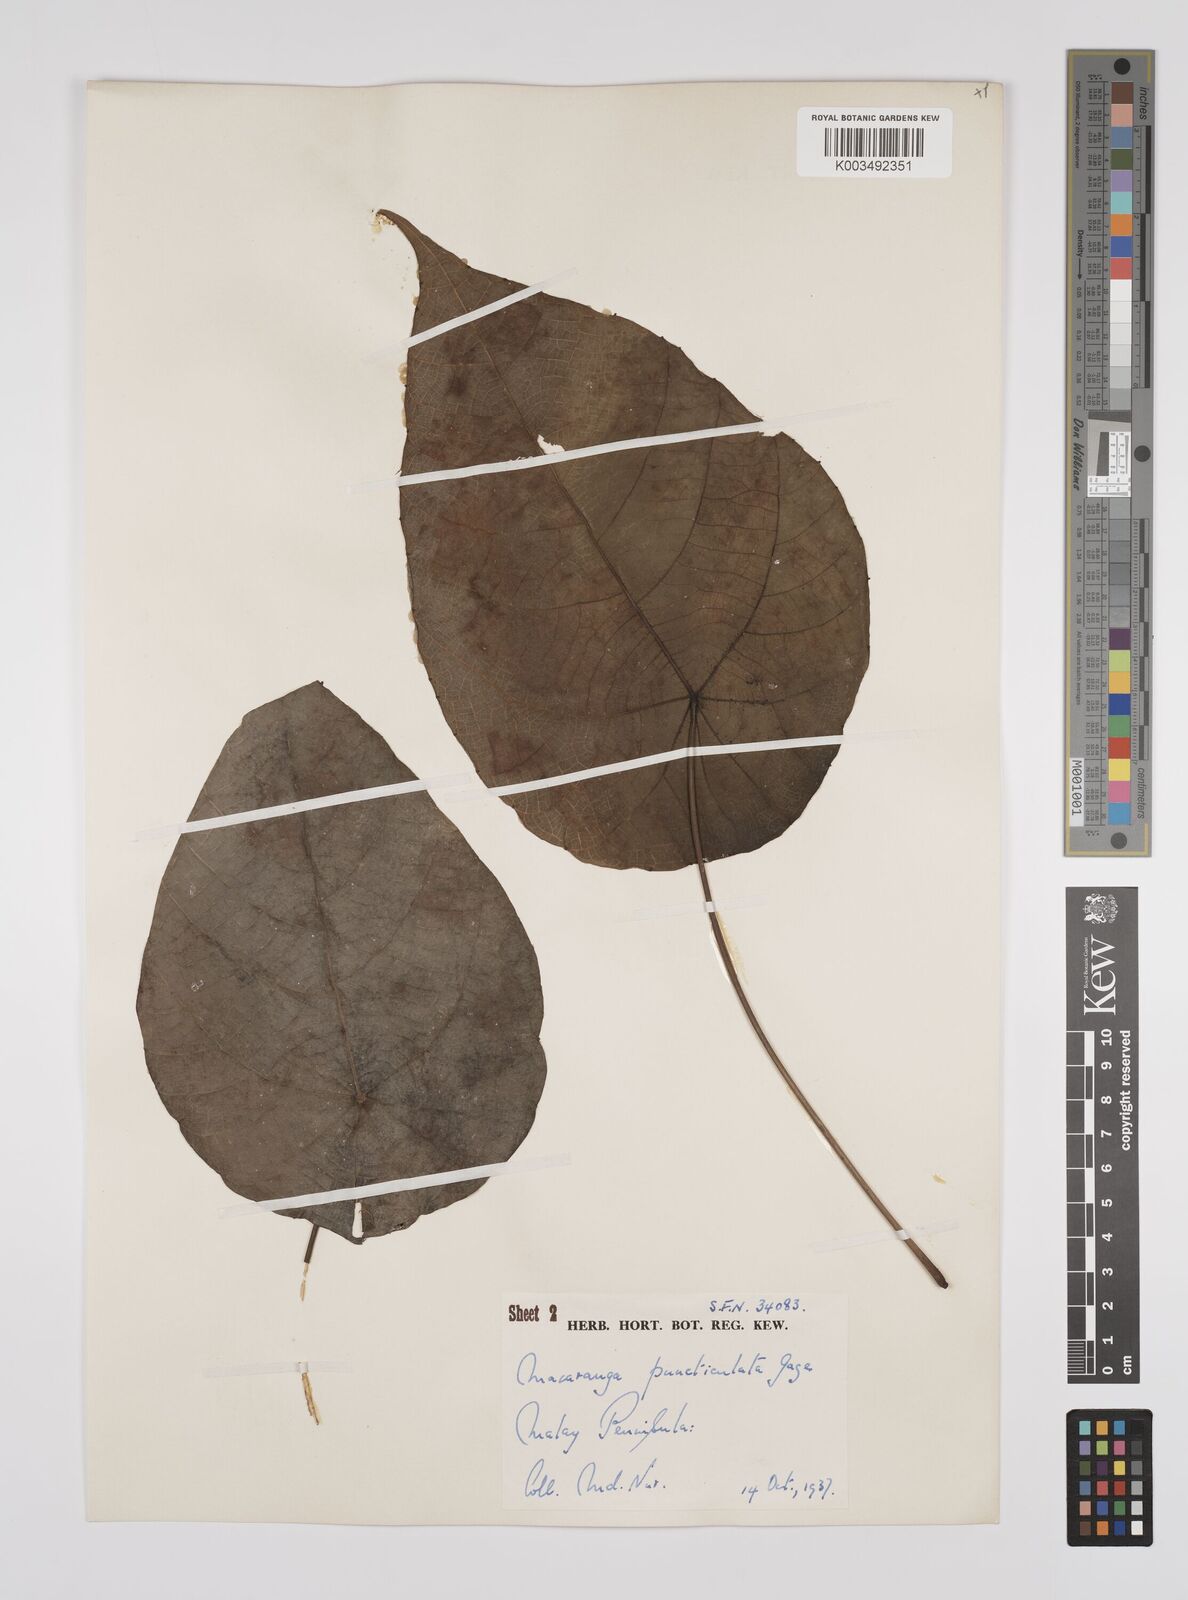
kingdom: Plantae
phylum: Tracheophyta
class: Magnoliopsida
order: Malpighiales
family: Euphorbiaceae
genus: Macaranga
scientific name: Macaranga puncticulata
